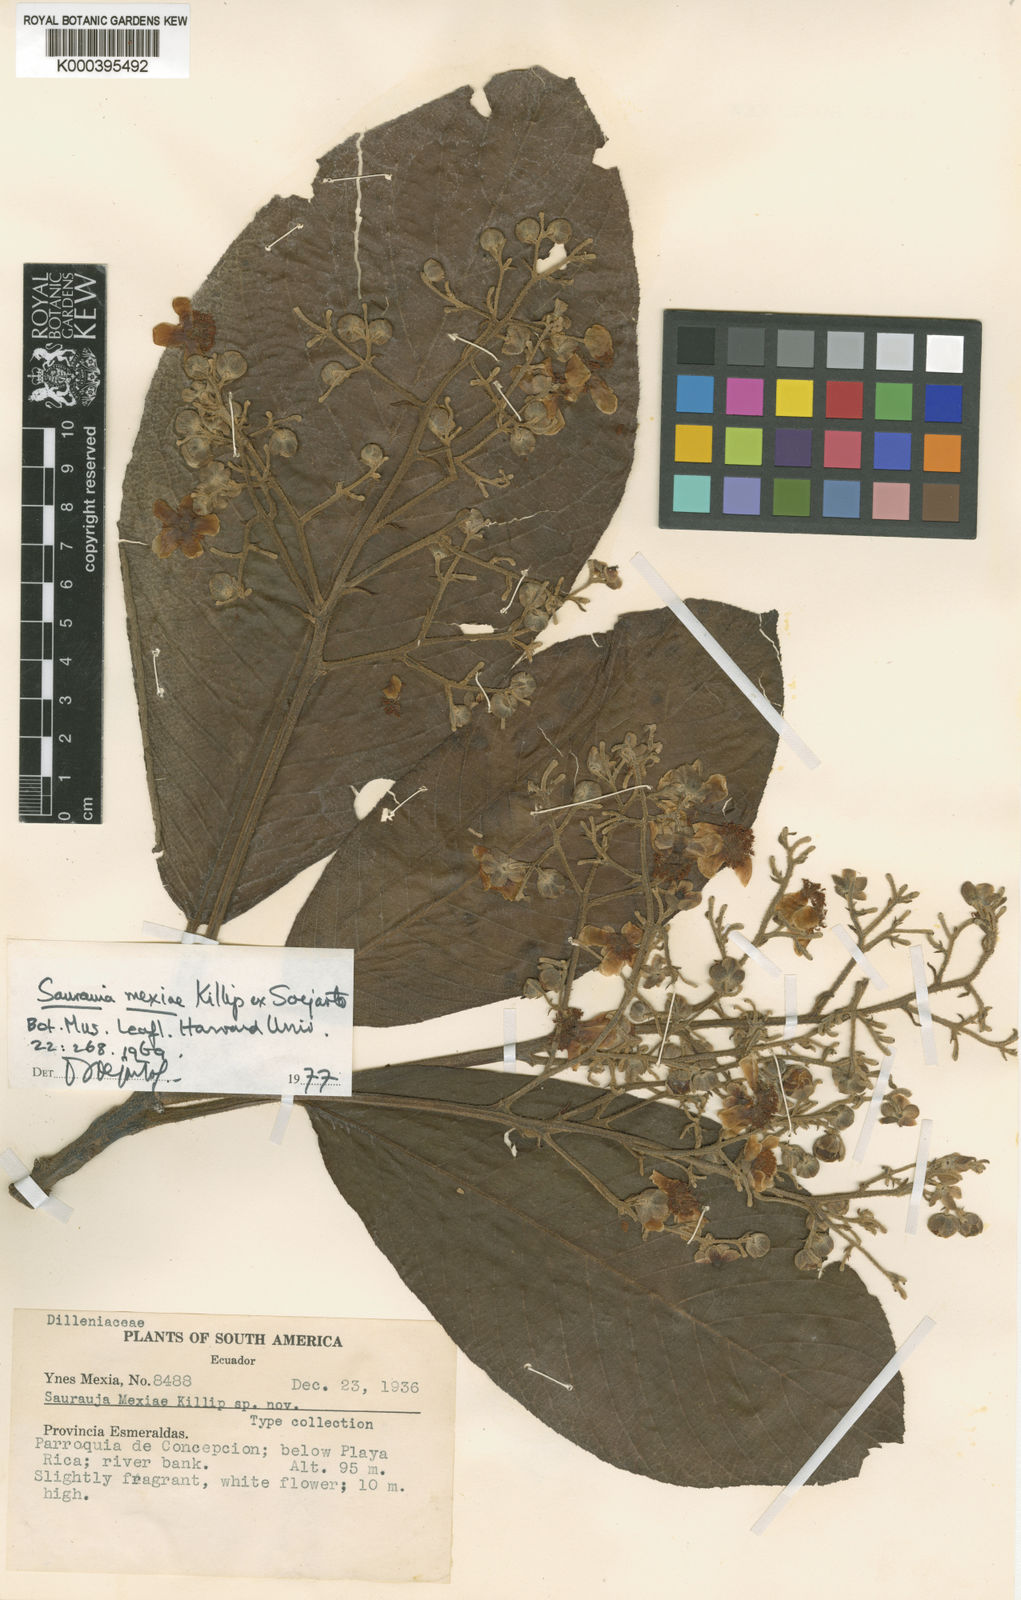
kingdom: Plantae
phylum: Tracheophyta
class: Magnoliopsida
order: Ericales
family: Actinidiaceae
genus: Saurauia
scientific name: Saurauia mexiae
